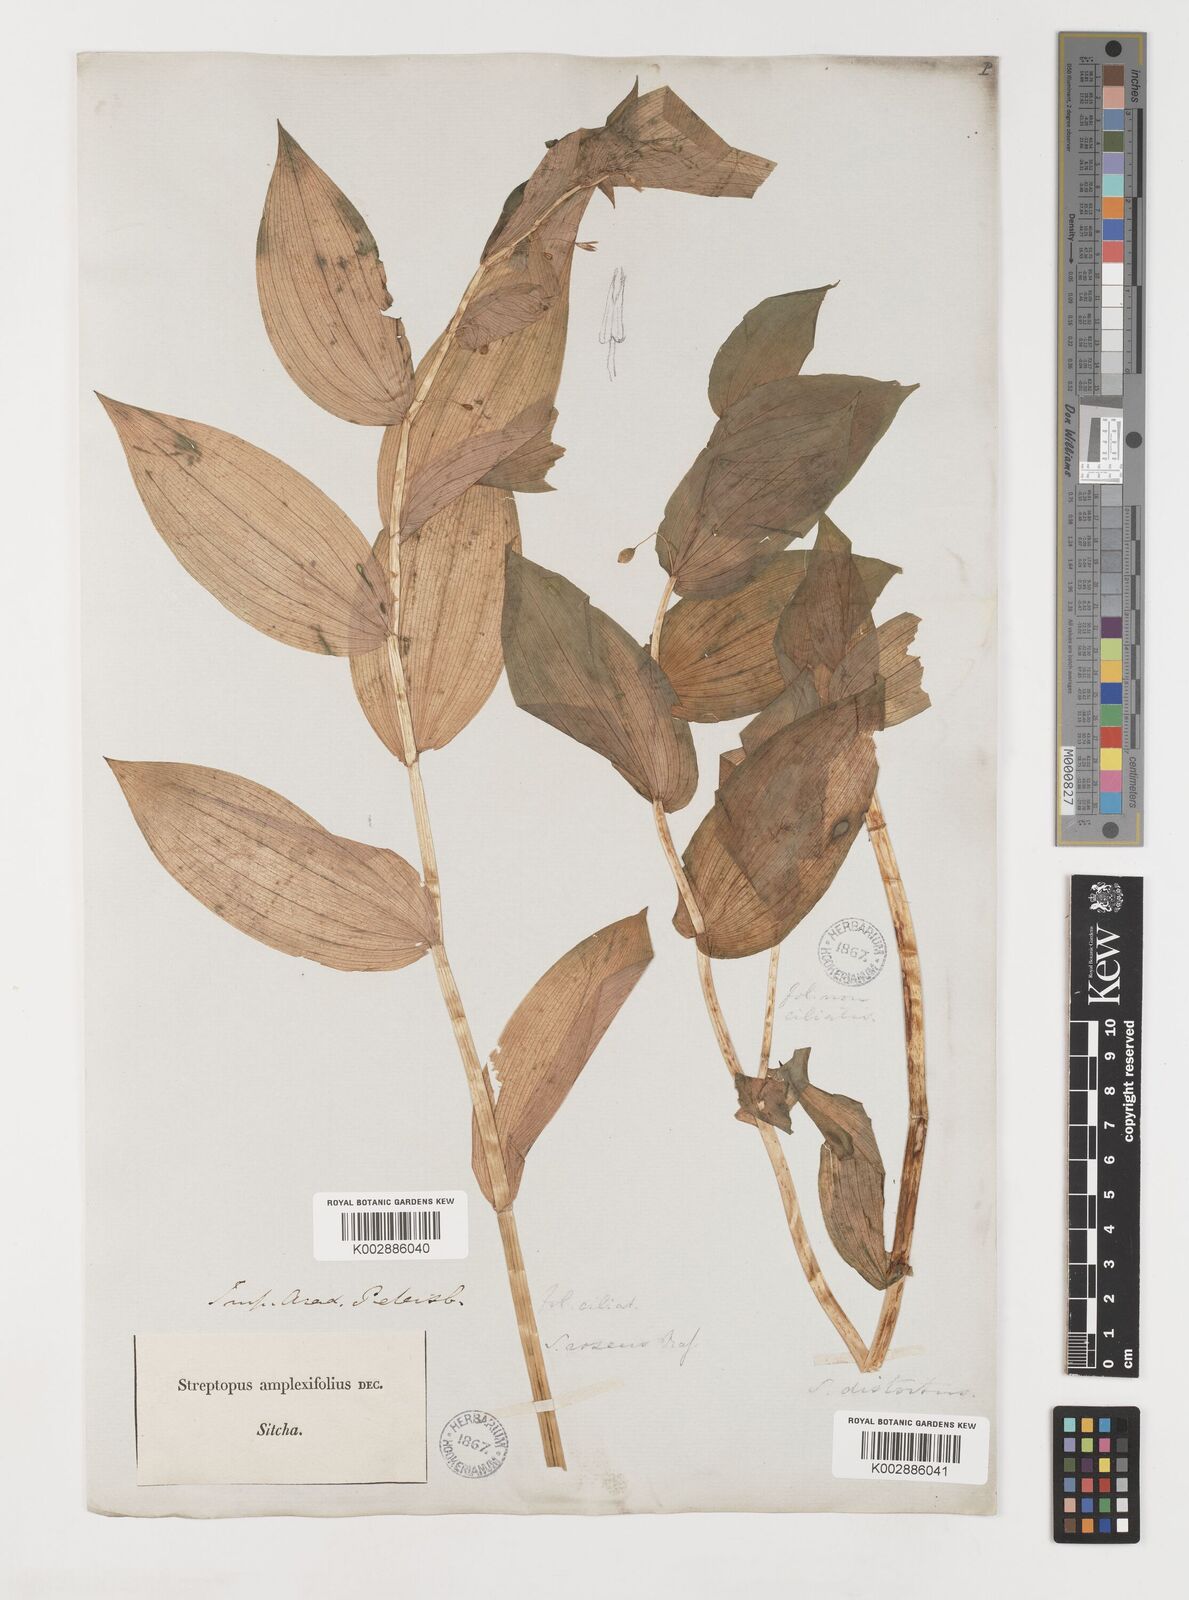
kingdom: Plantae
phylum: Tracheophyta
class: Liliopsida
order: Liliales
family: Liliaceae
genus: Streptopus
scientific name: Streptopus lanceolatus
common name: Rose mandarin
